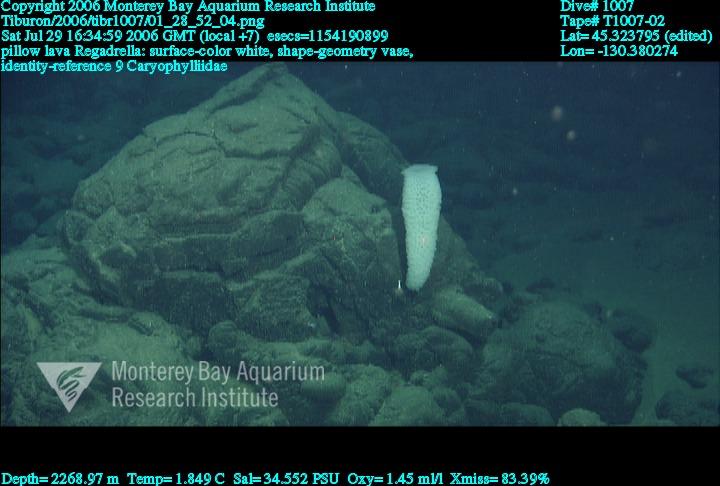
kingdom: Animalia
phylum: Porifera
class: Hexactinellida
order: Lyssacinosida
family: Euplectellidae
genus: Regadrella
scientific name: Regadrella
